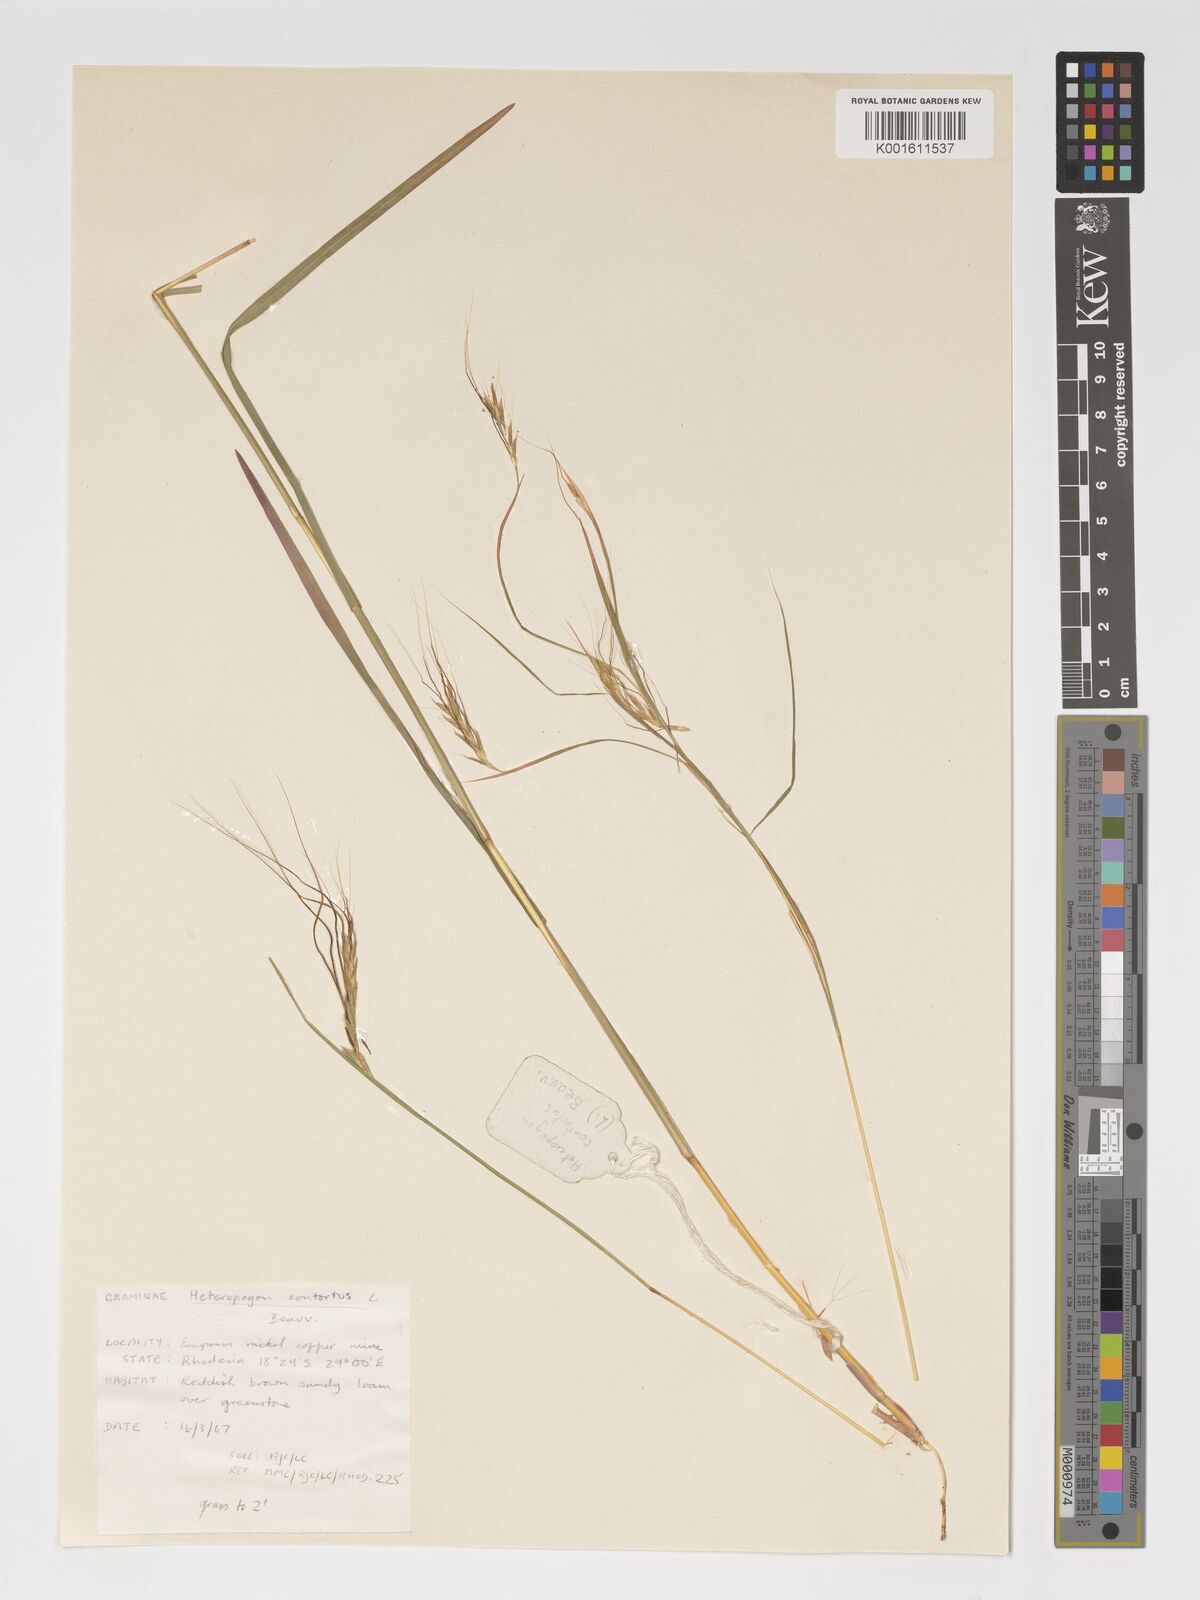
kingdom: Plantae
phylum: Tracheophyta
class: Liliopsida
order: Poales
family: Poaceae
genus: Heteropogon
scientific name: Heteropogon contortus
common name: Tanglehead
